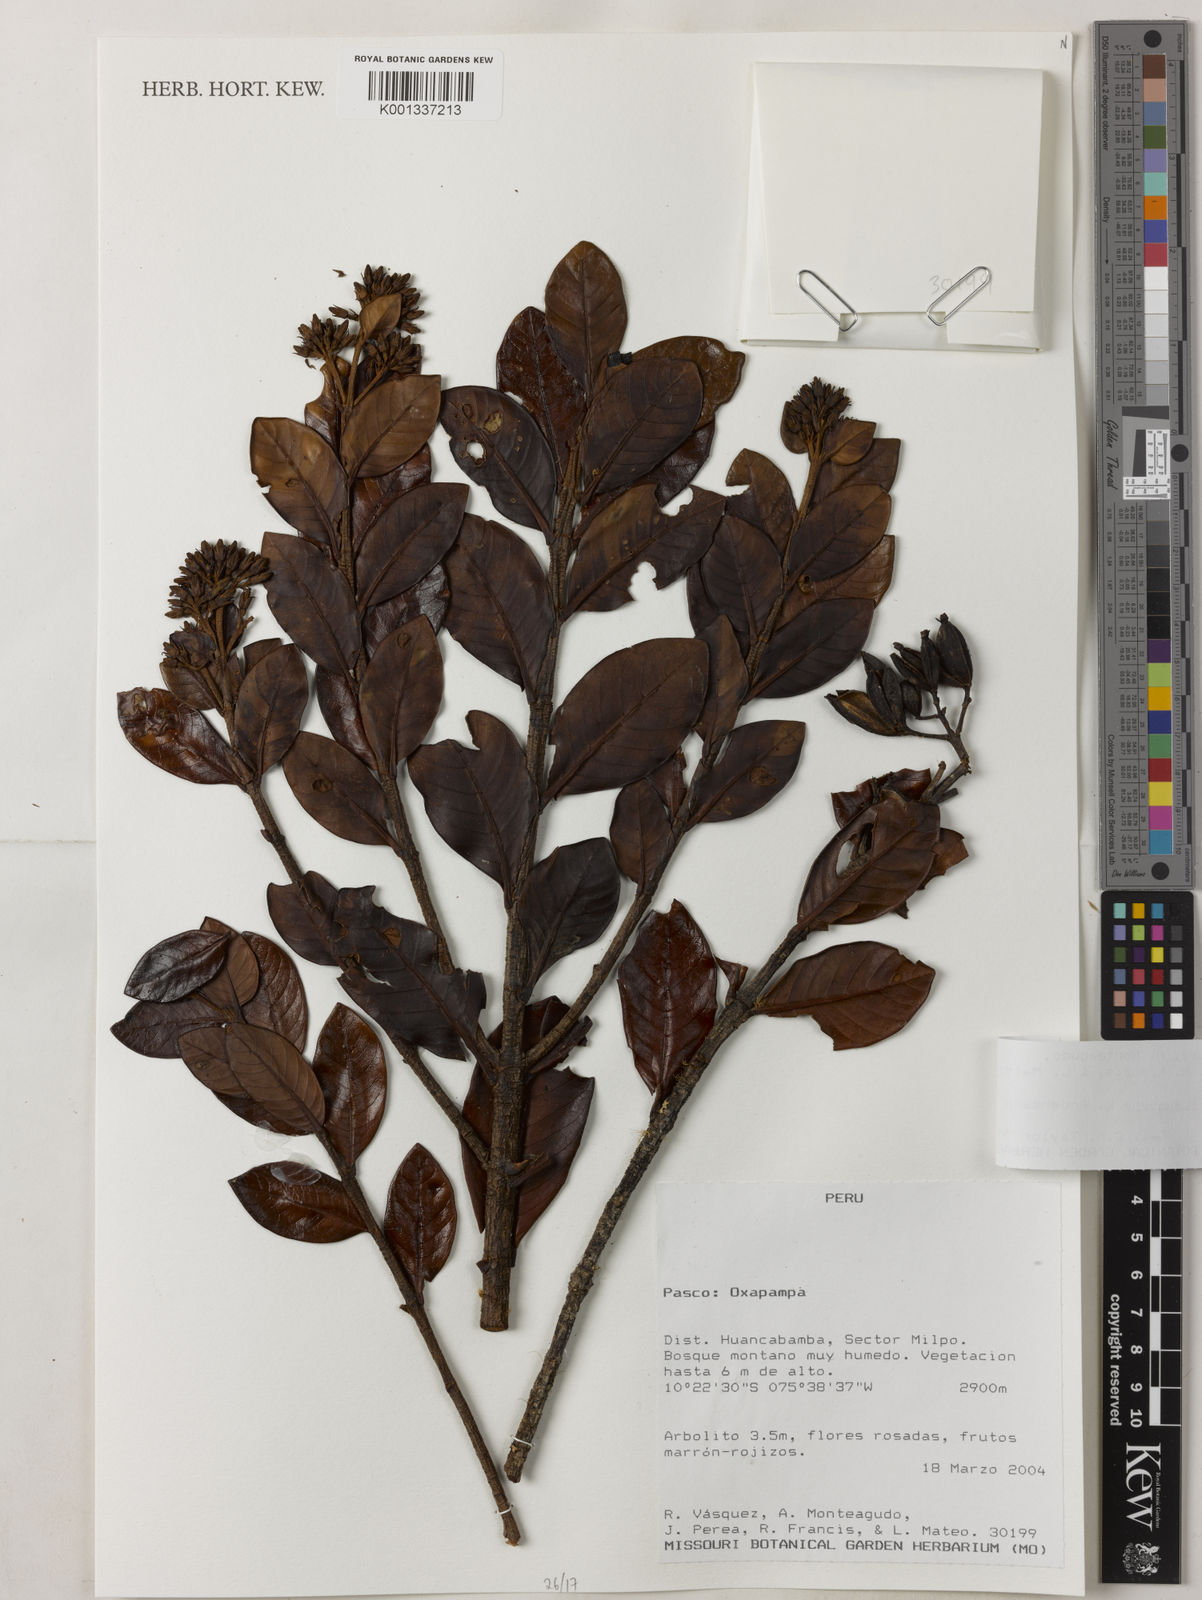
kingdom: Plantae
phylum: Tracheophyta
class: Magnoliopsida
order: Gentianales
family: Rubiaceae
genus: Cinchona
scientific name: Cinchona krauseana
